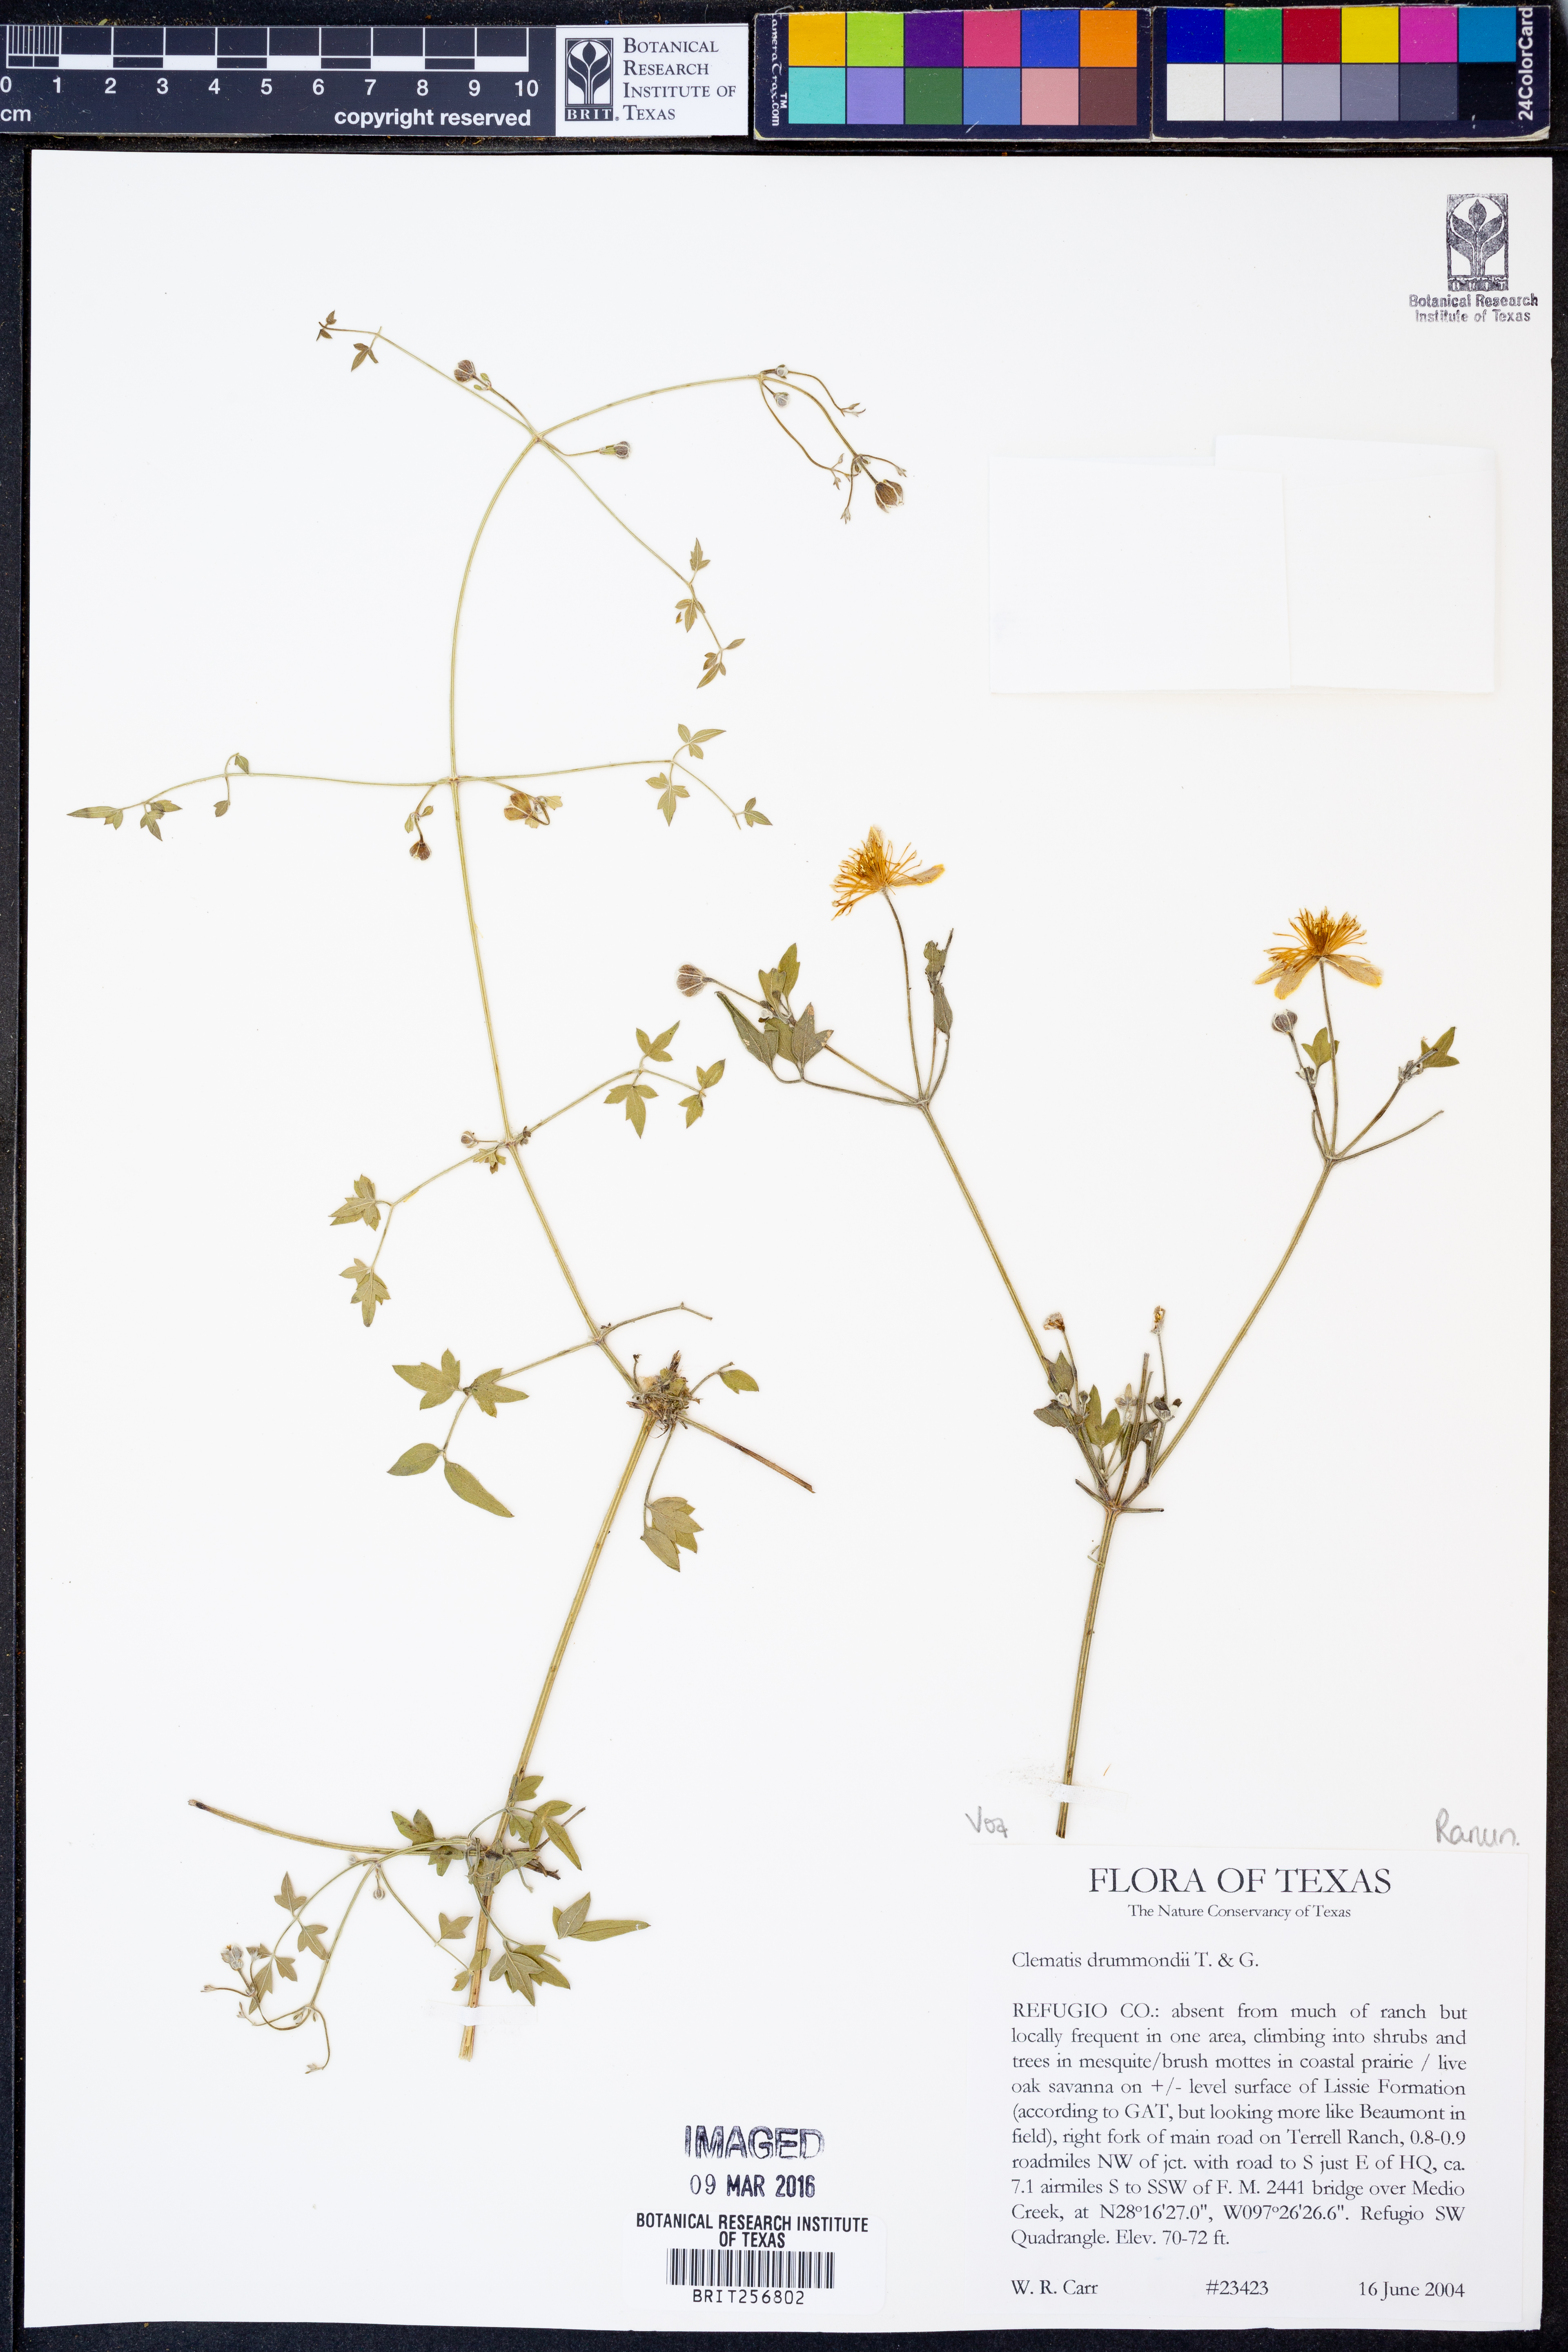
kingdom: Plantae
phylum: Tracheophyta
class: Magnoliopsida
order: Ranunculales
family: Ranunculaceae
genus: Clematis
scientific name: Clematis drummondii
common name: Texas virgin's bower
